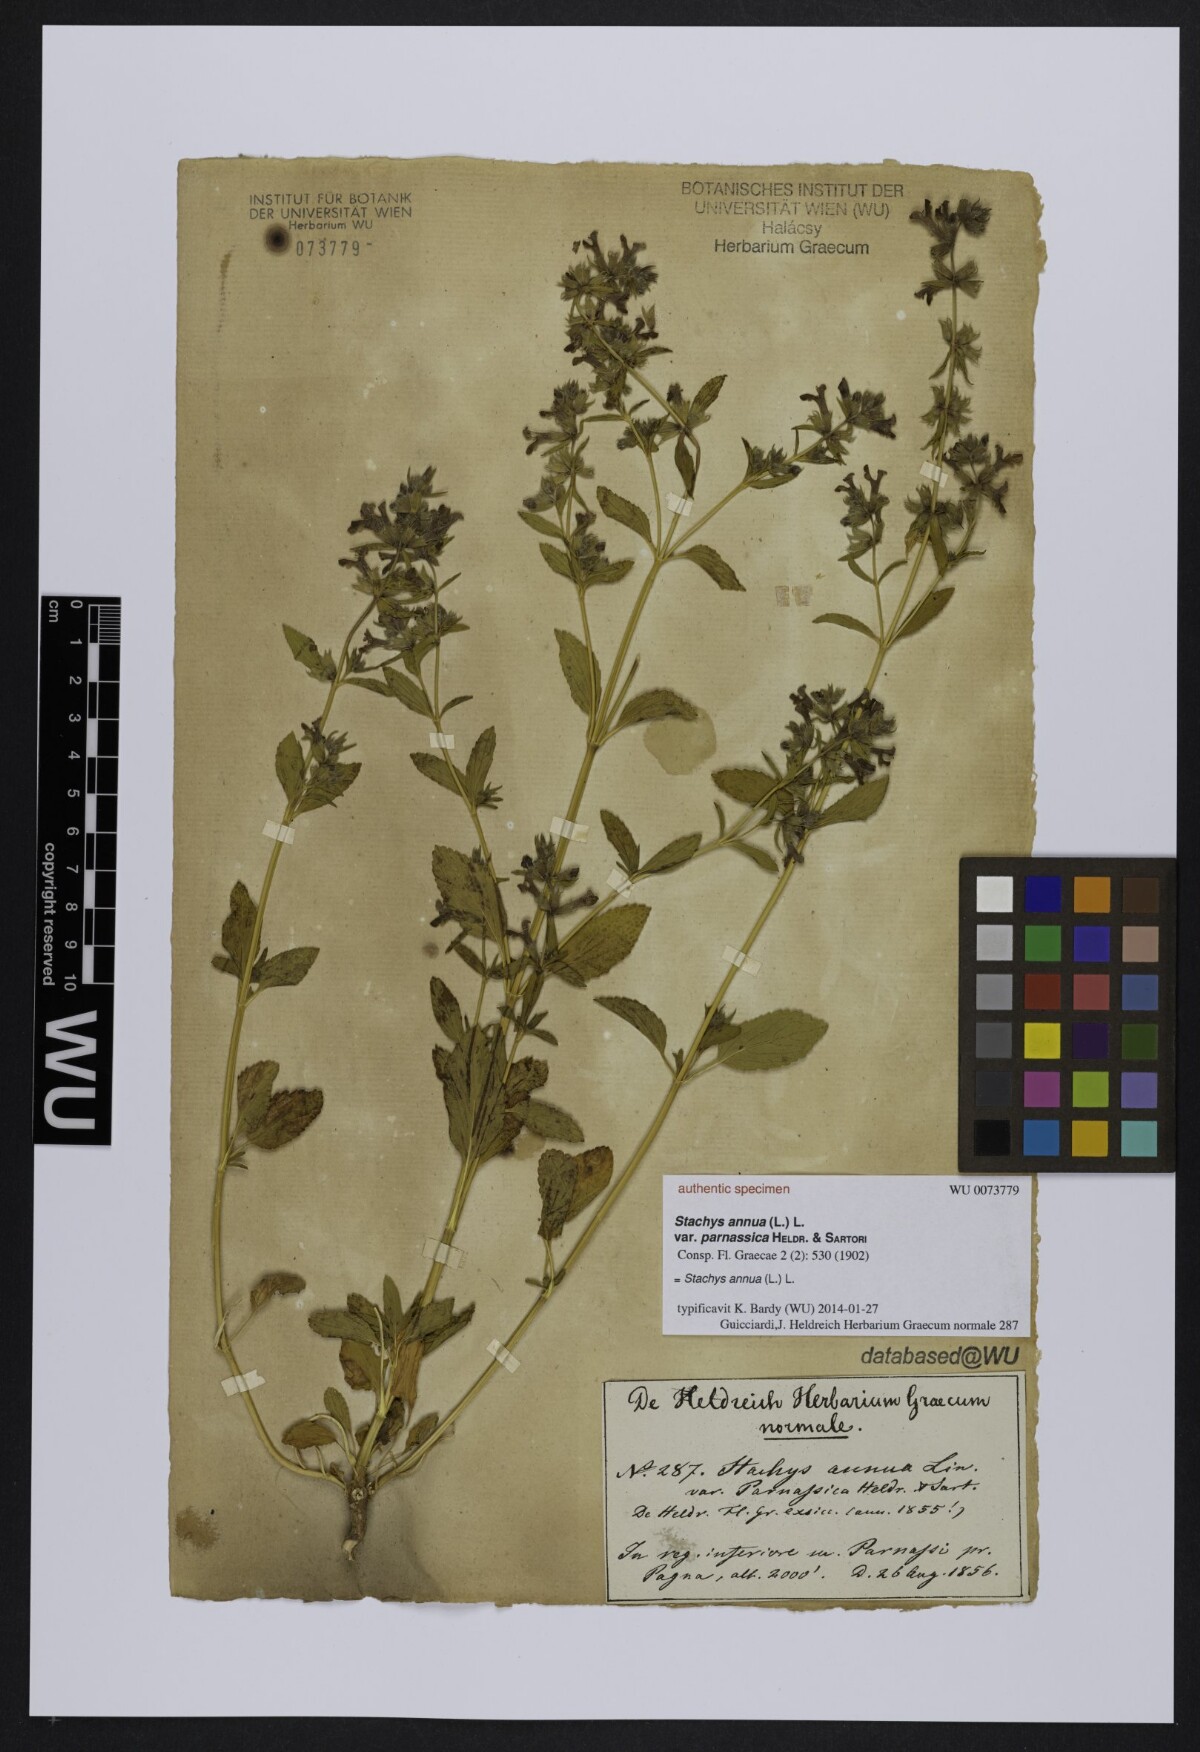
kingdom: Plantae
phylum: Tracheophyta
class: Magnoliopsida
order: Lamiales
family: Lamiaceae
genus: Stachys
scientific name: Stachys annua
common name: Annual yellow-woundwort
